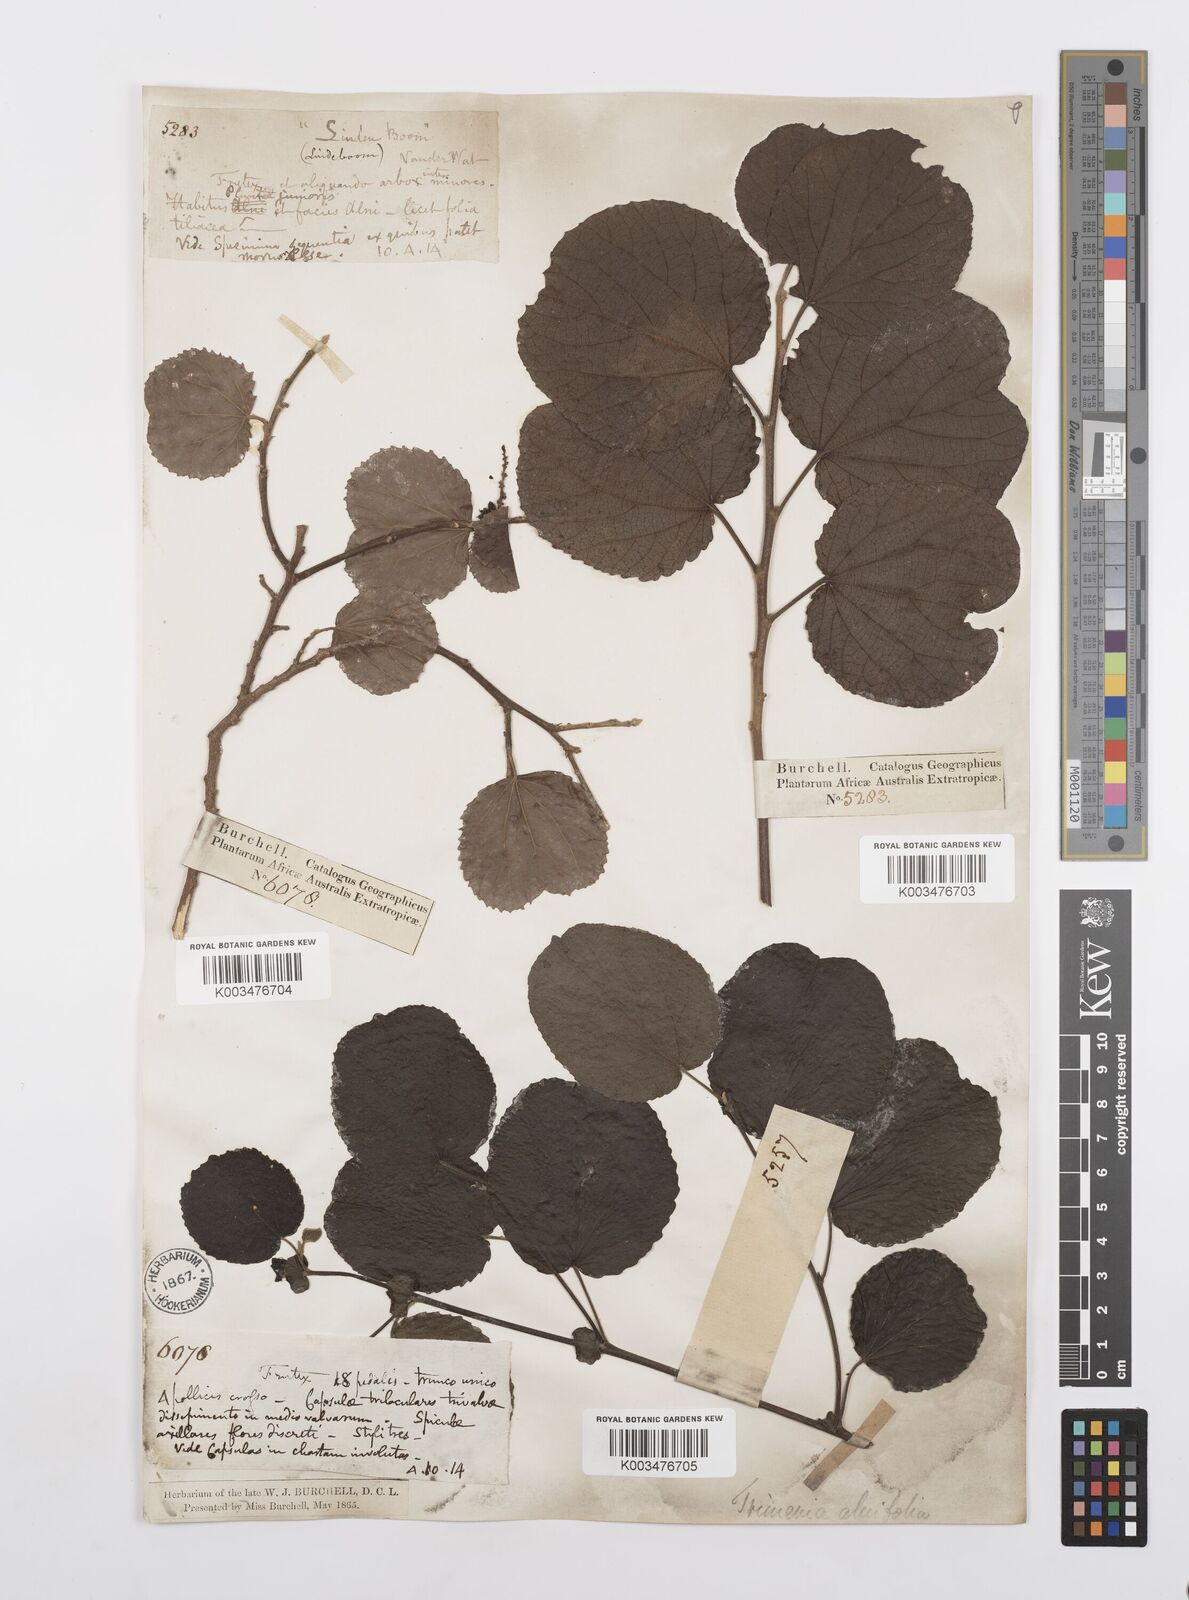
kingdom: Plantae
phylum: Tracheophyta
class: Magnoliopsida
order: Malpighiales
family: Salicaceae
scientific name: Salicaceae
